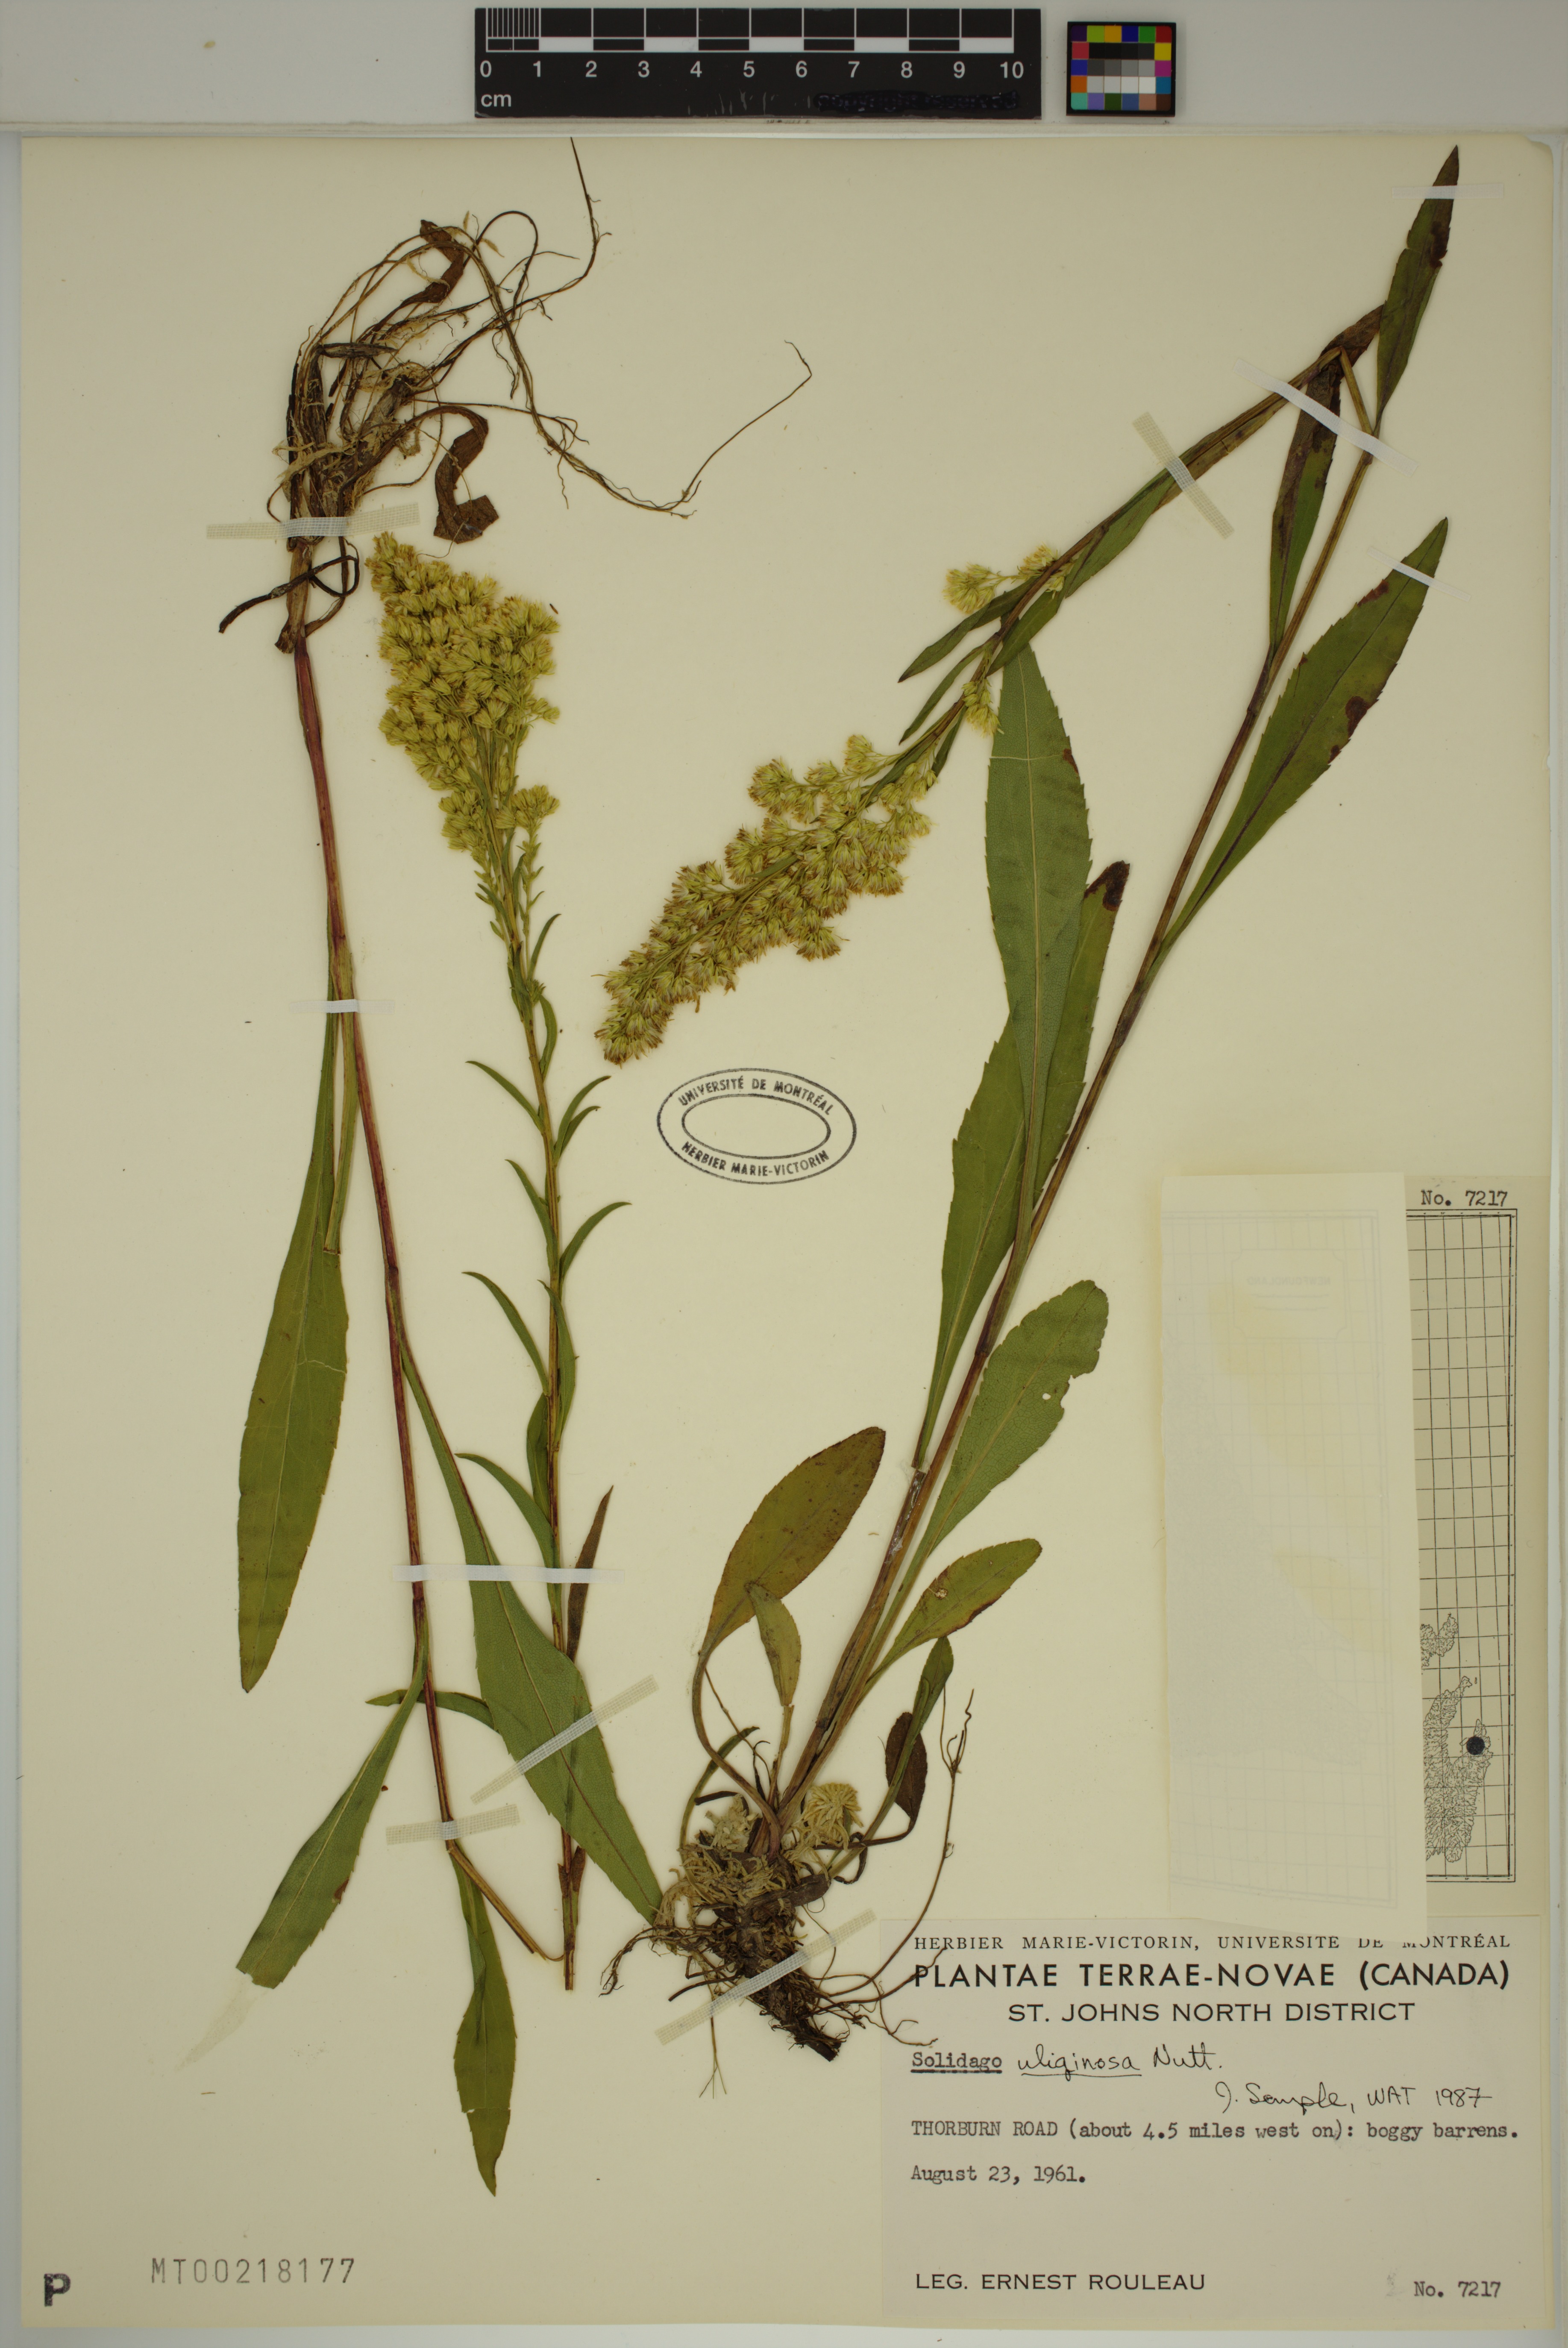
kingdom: Plantae
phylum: Tracheophyta
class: Magnoliopsida
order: Asterales
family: Asteraceae
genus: Solidago
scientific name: Solidago uliginosa
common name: Bog goldenrod
